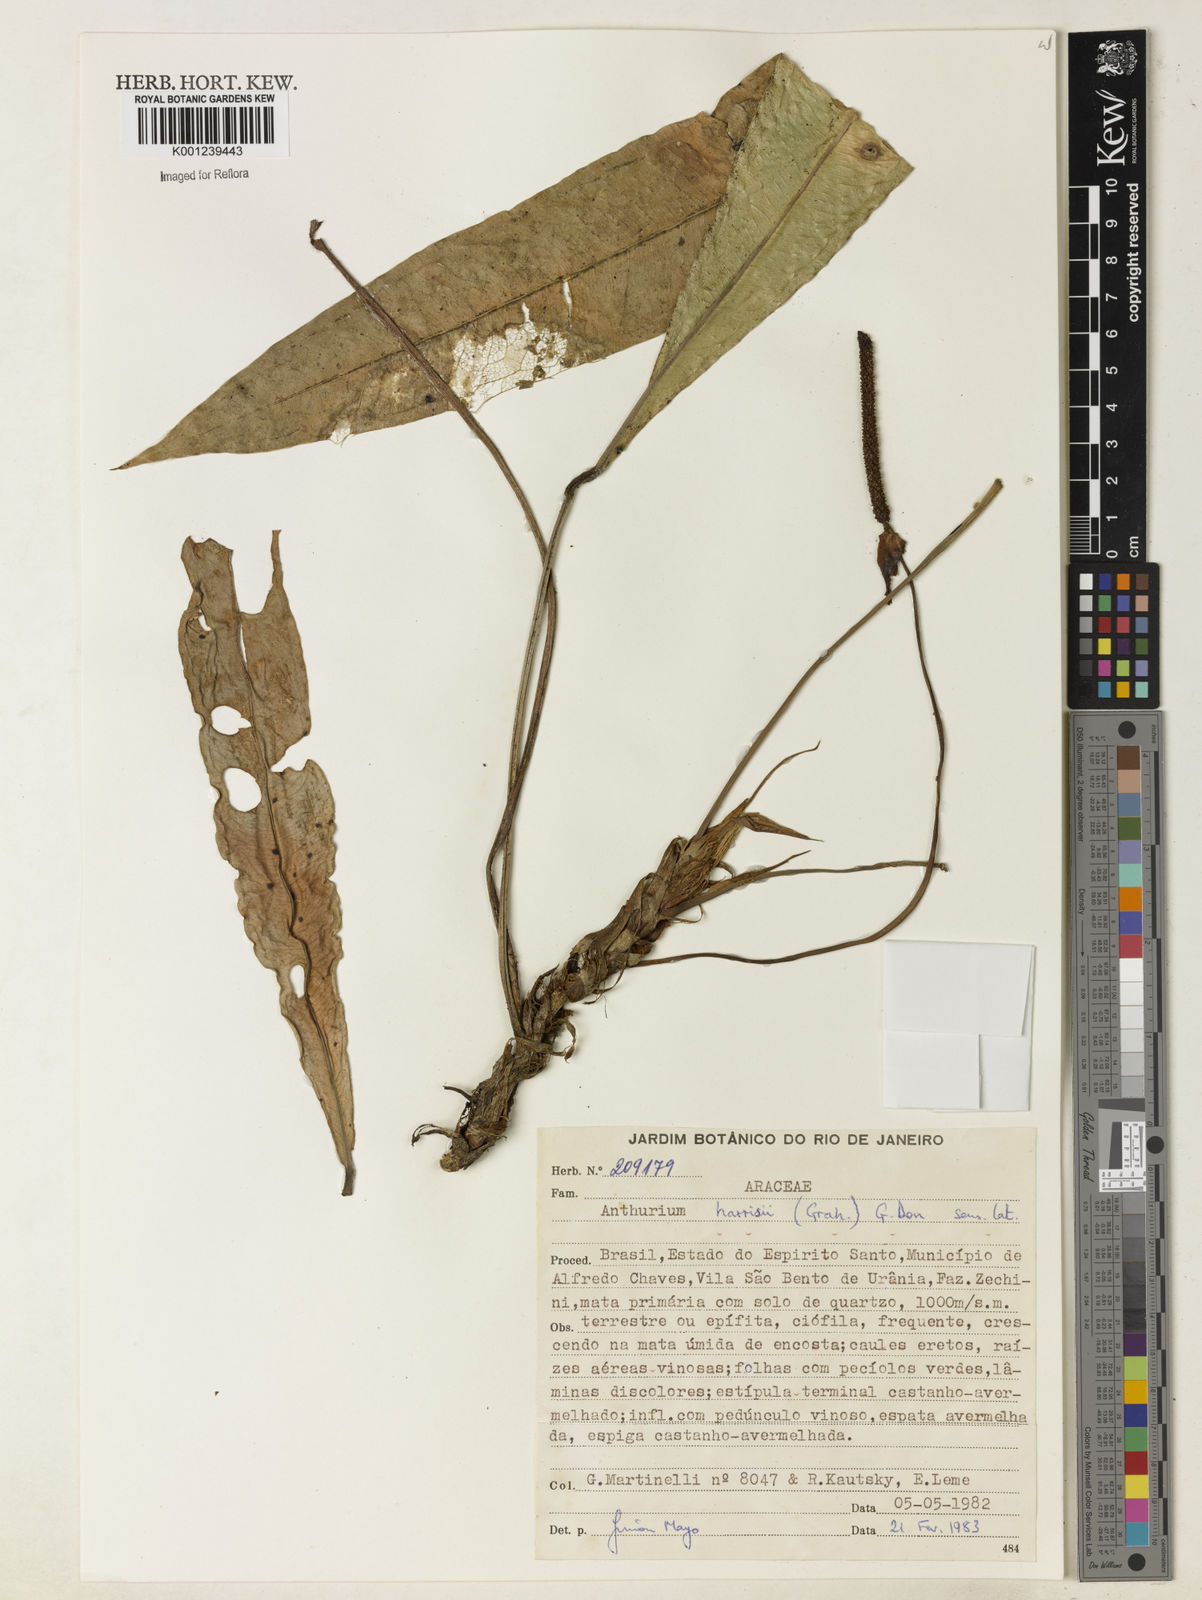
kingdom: Plantae
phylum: Tracheophyta
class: Liliopsida
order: Alismatales
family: Araceae
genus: Anthurium
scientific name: Anthurium harrisii
